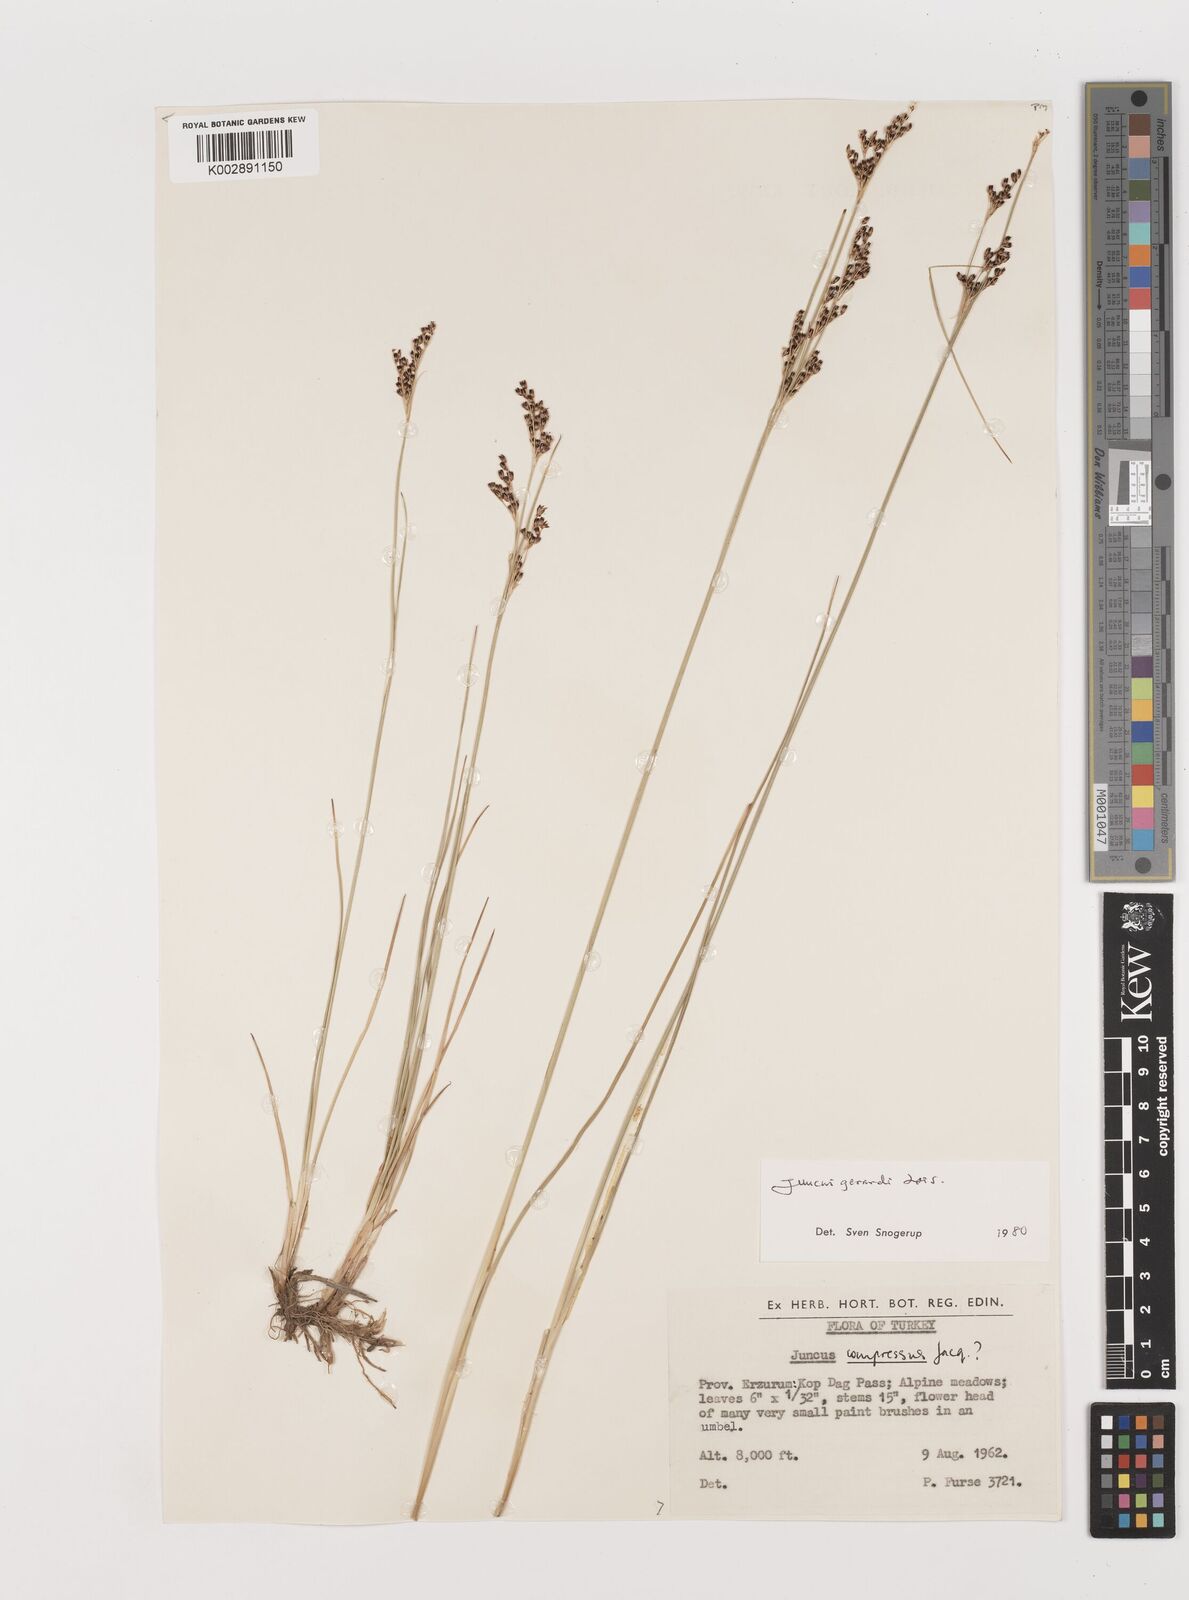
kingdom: Plantae
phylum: Tracheophyta
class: Liliopsida
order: Poales
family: Juncaceae
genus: Juncus
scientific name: Juncus gerardi
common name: Saltmarsh rush
